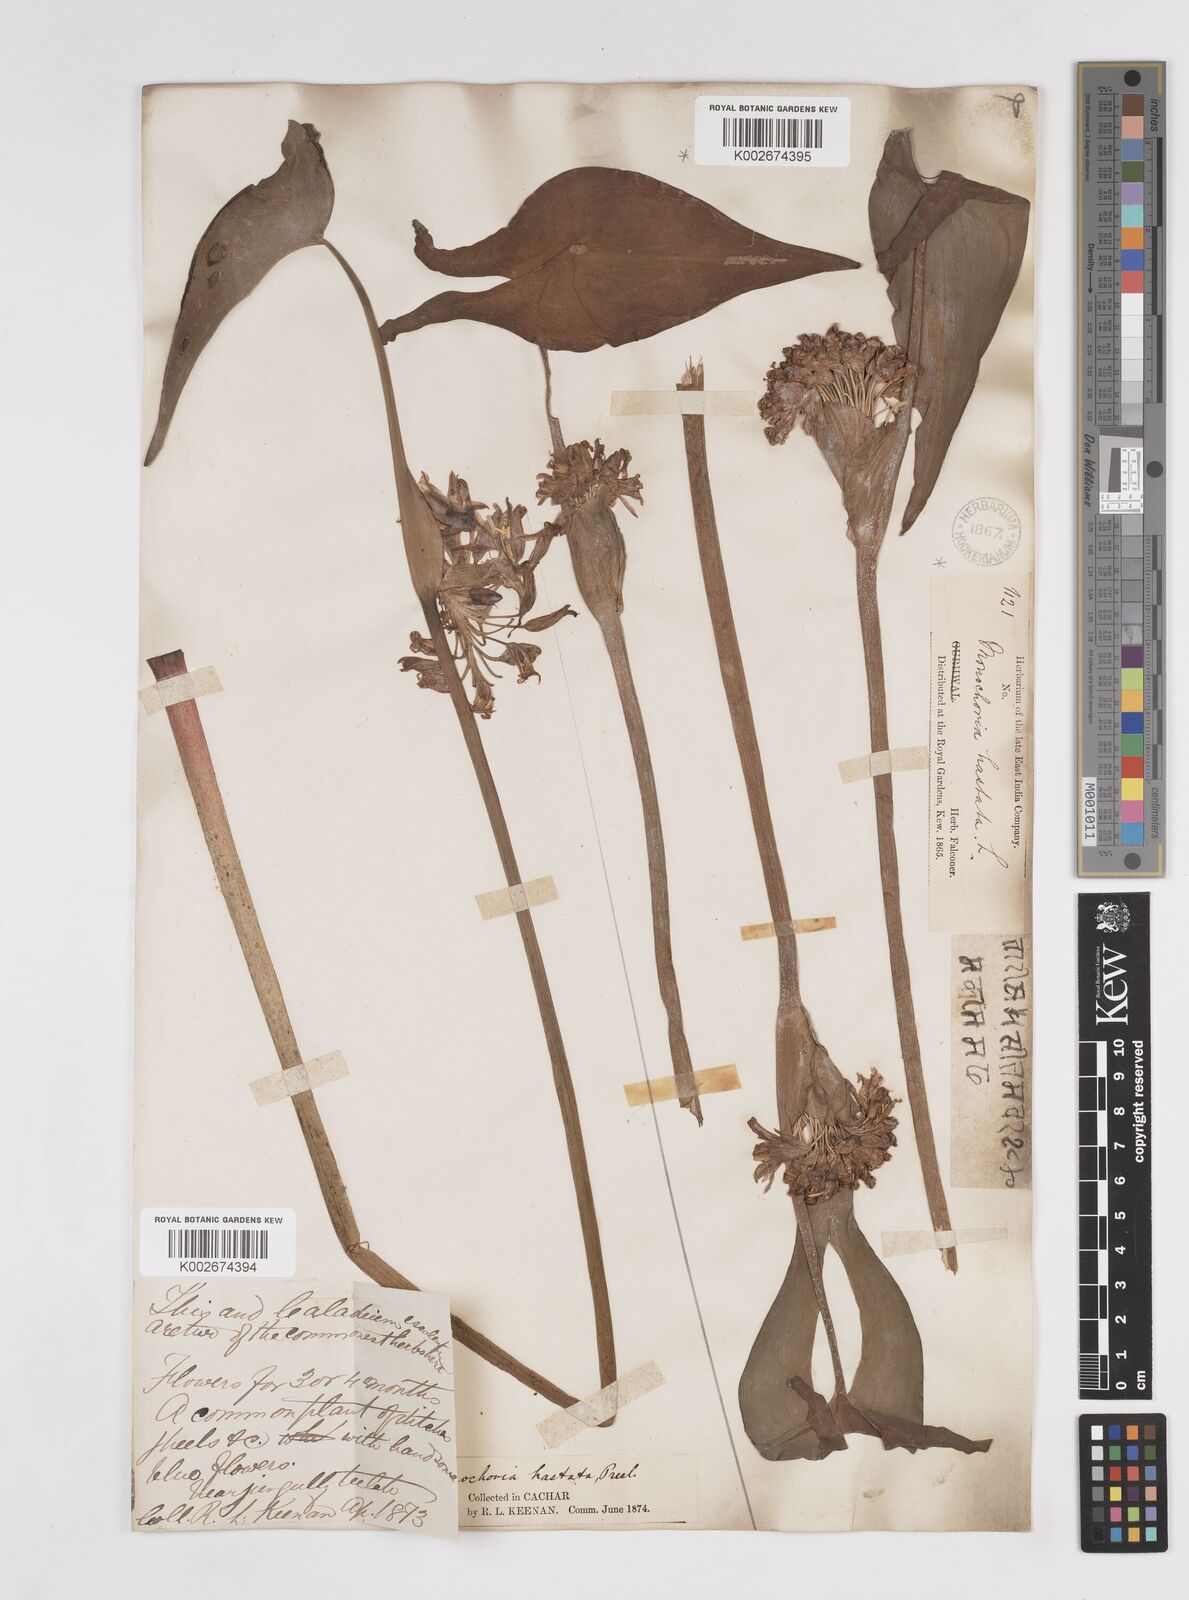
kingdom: Plantae
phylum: Tracheophyta
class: Liliopsida
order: Commelinales
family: Pontederiaceae
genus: Pontederia
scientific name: Pontederia hastata
